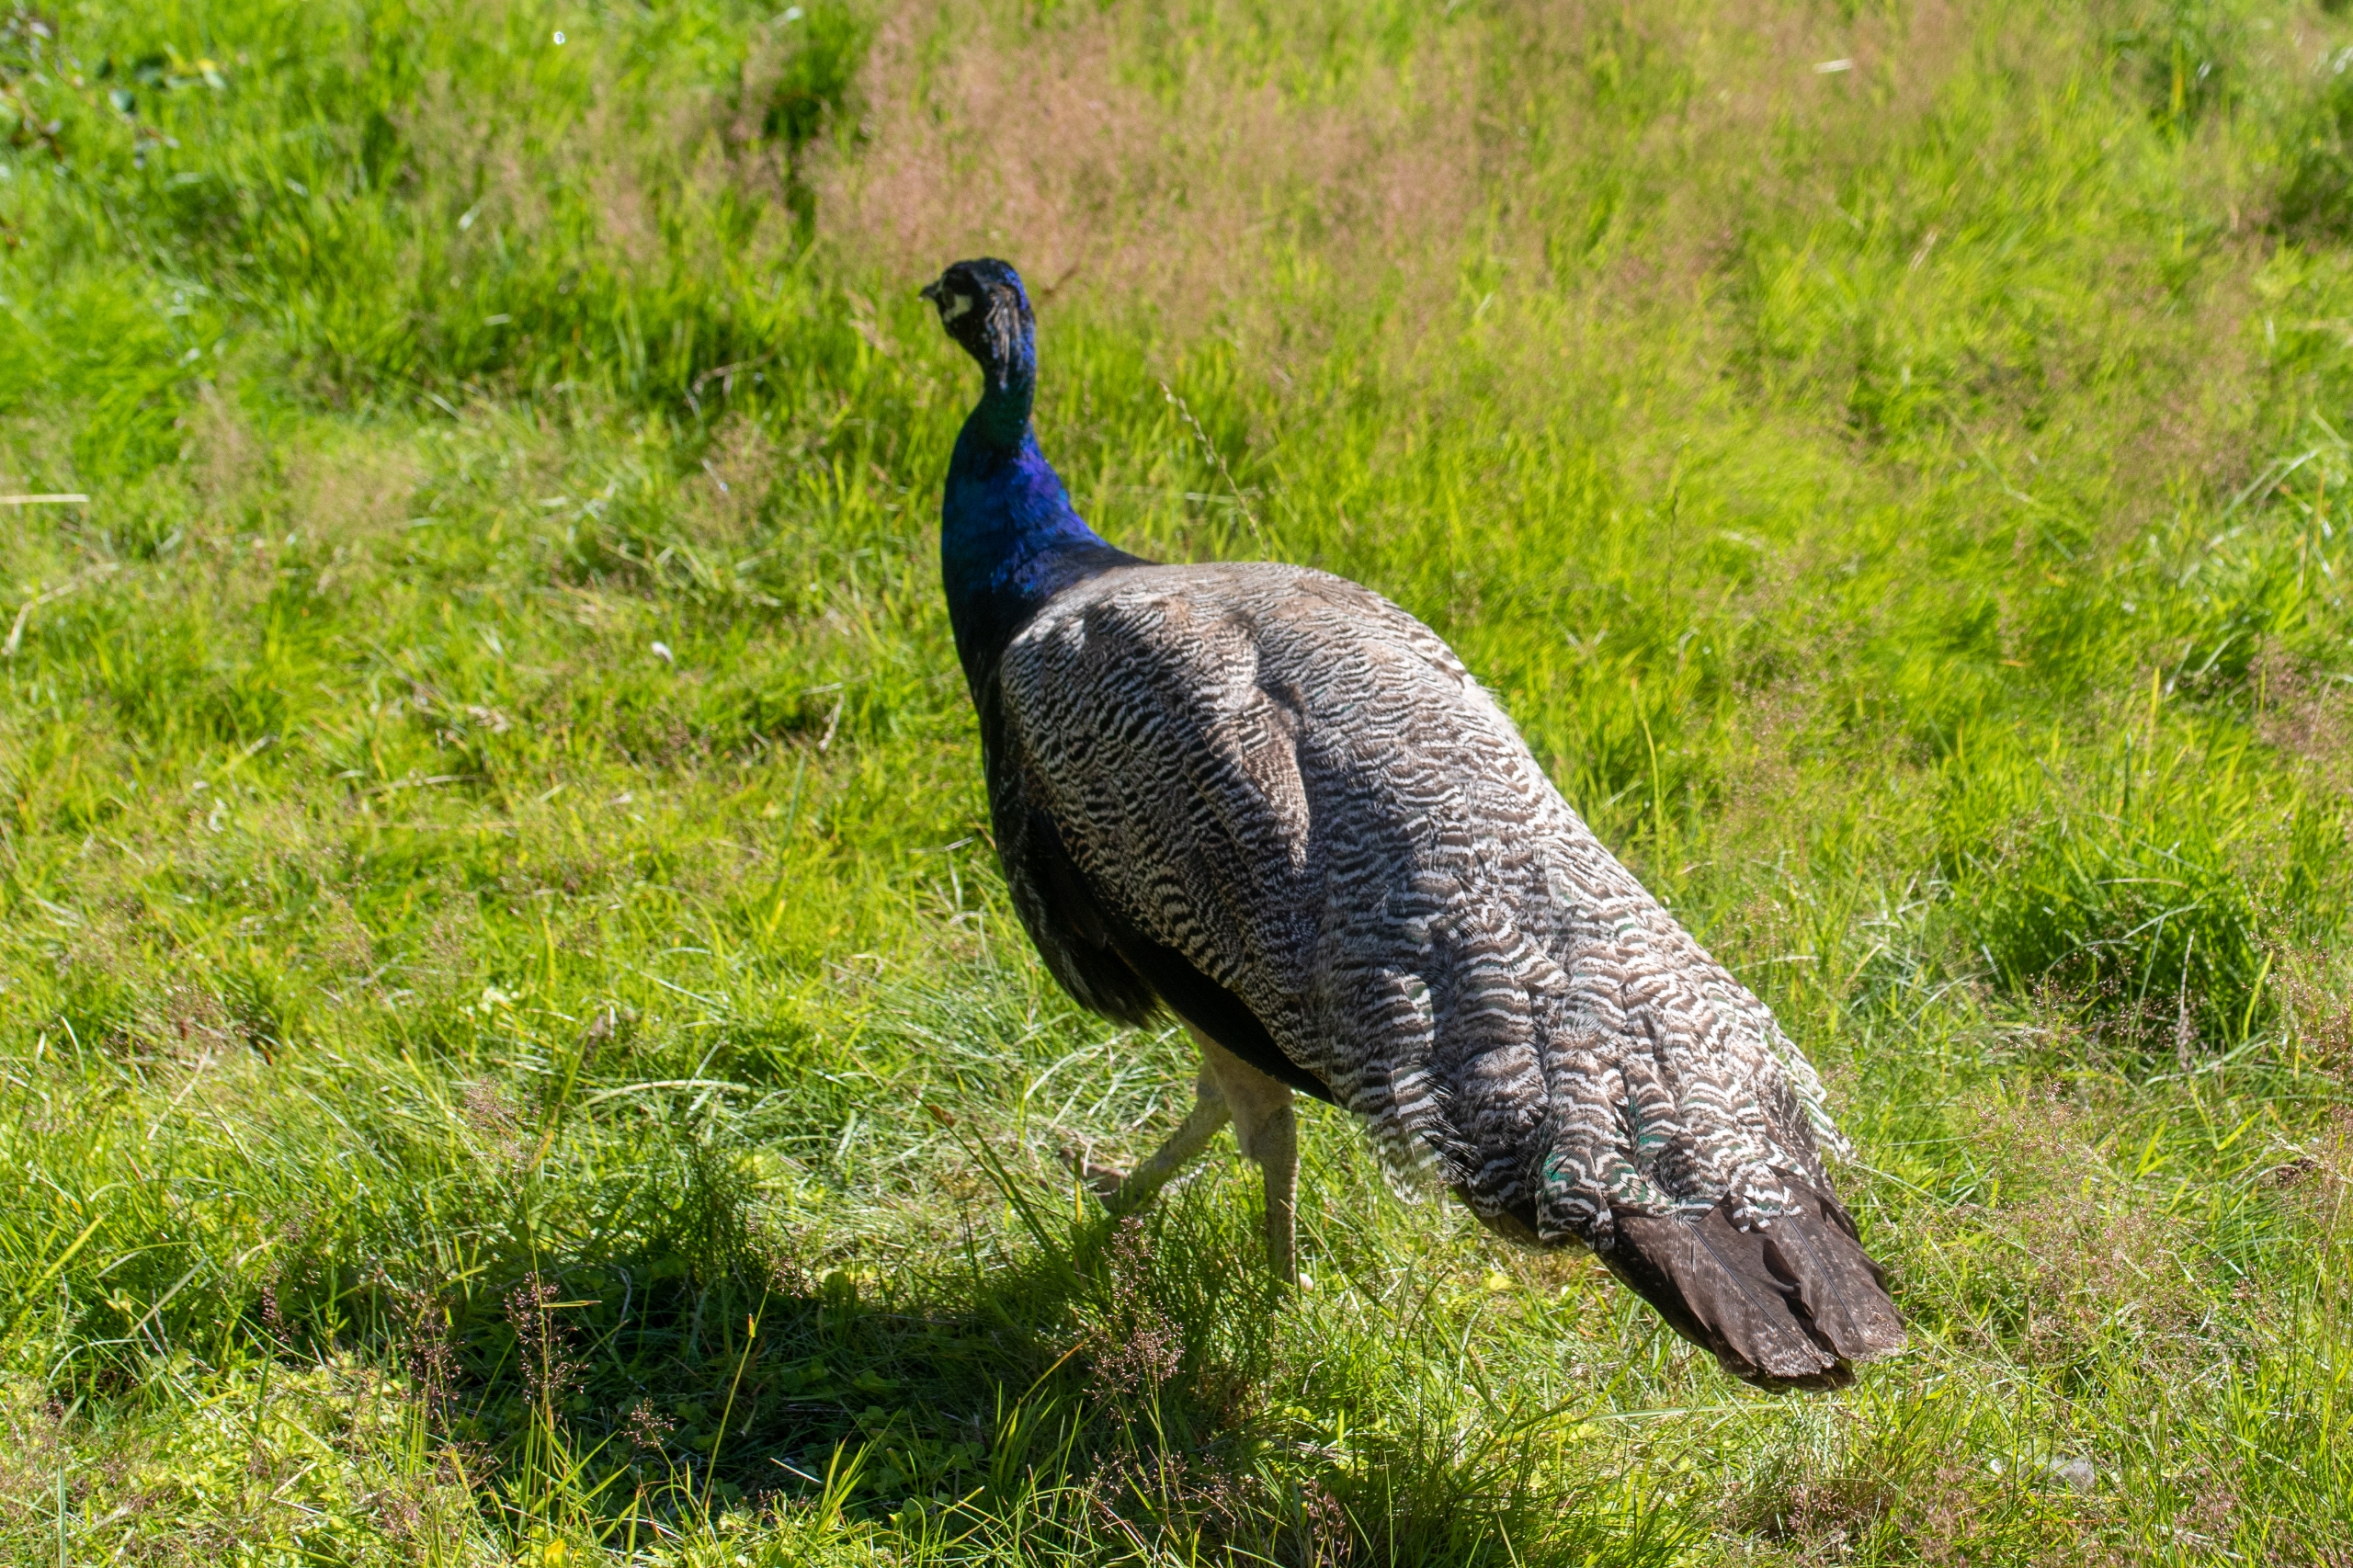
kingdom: Animalia
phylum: Chordata
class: Aves
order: Galliformes
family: Phasianidae
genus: Pavo
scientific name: Pavo cristatus
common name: Påfugl
